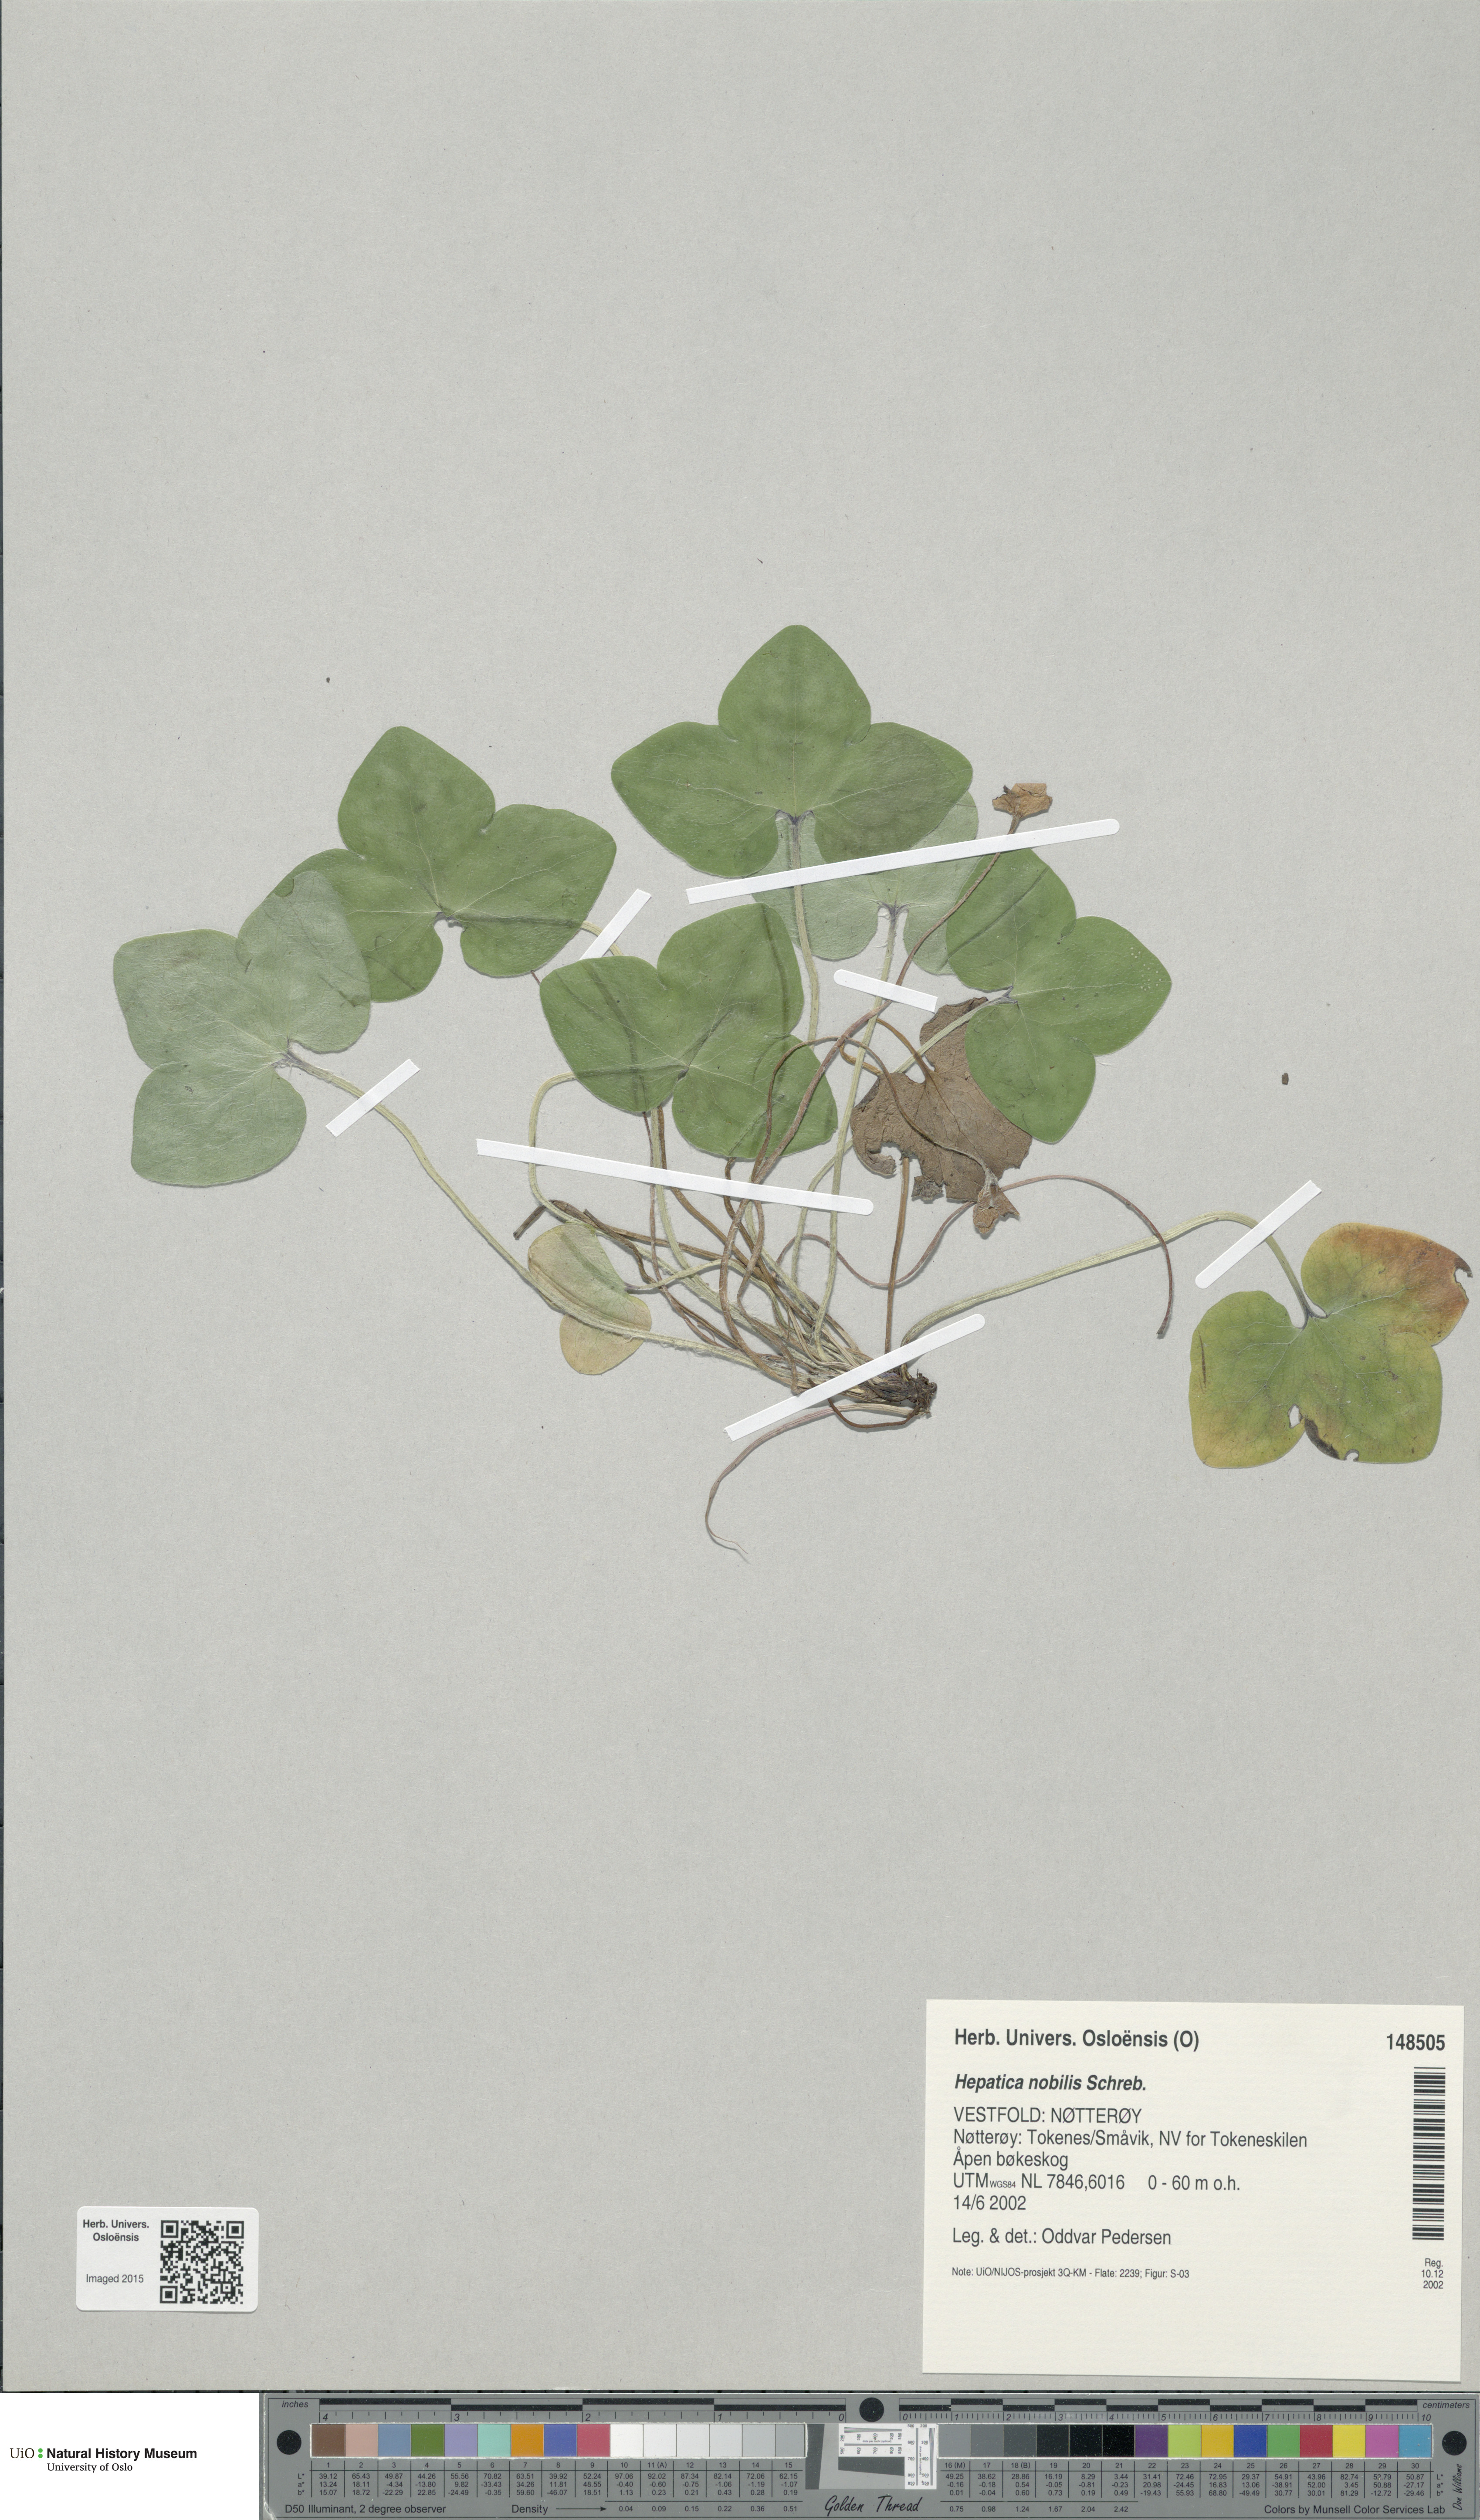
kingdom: Plantae
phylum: Tracheophyta
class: Magnoliopsida
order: Ranunculales
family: Ranunculaceae
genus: Hepatica
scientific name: Hepatica nobilis
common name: Liverleaf
